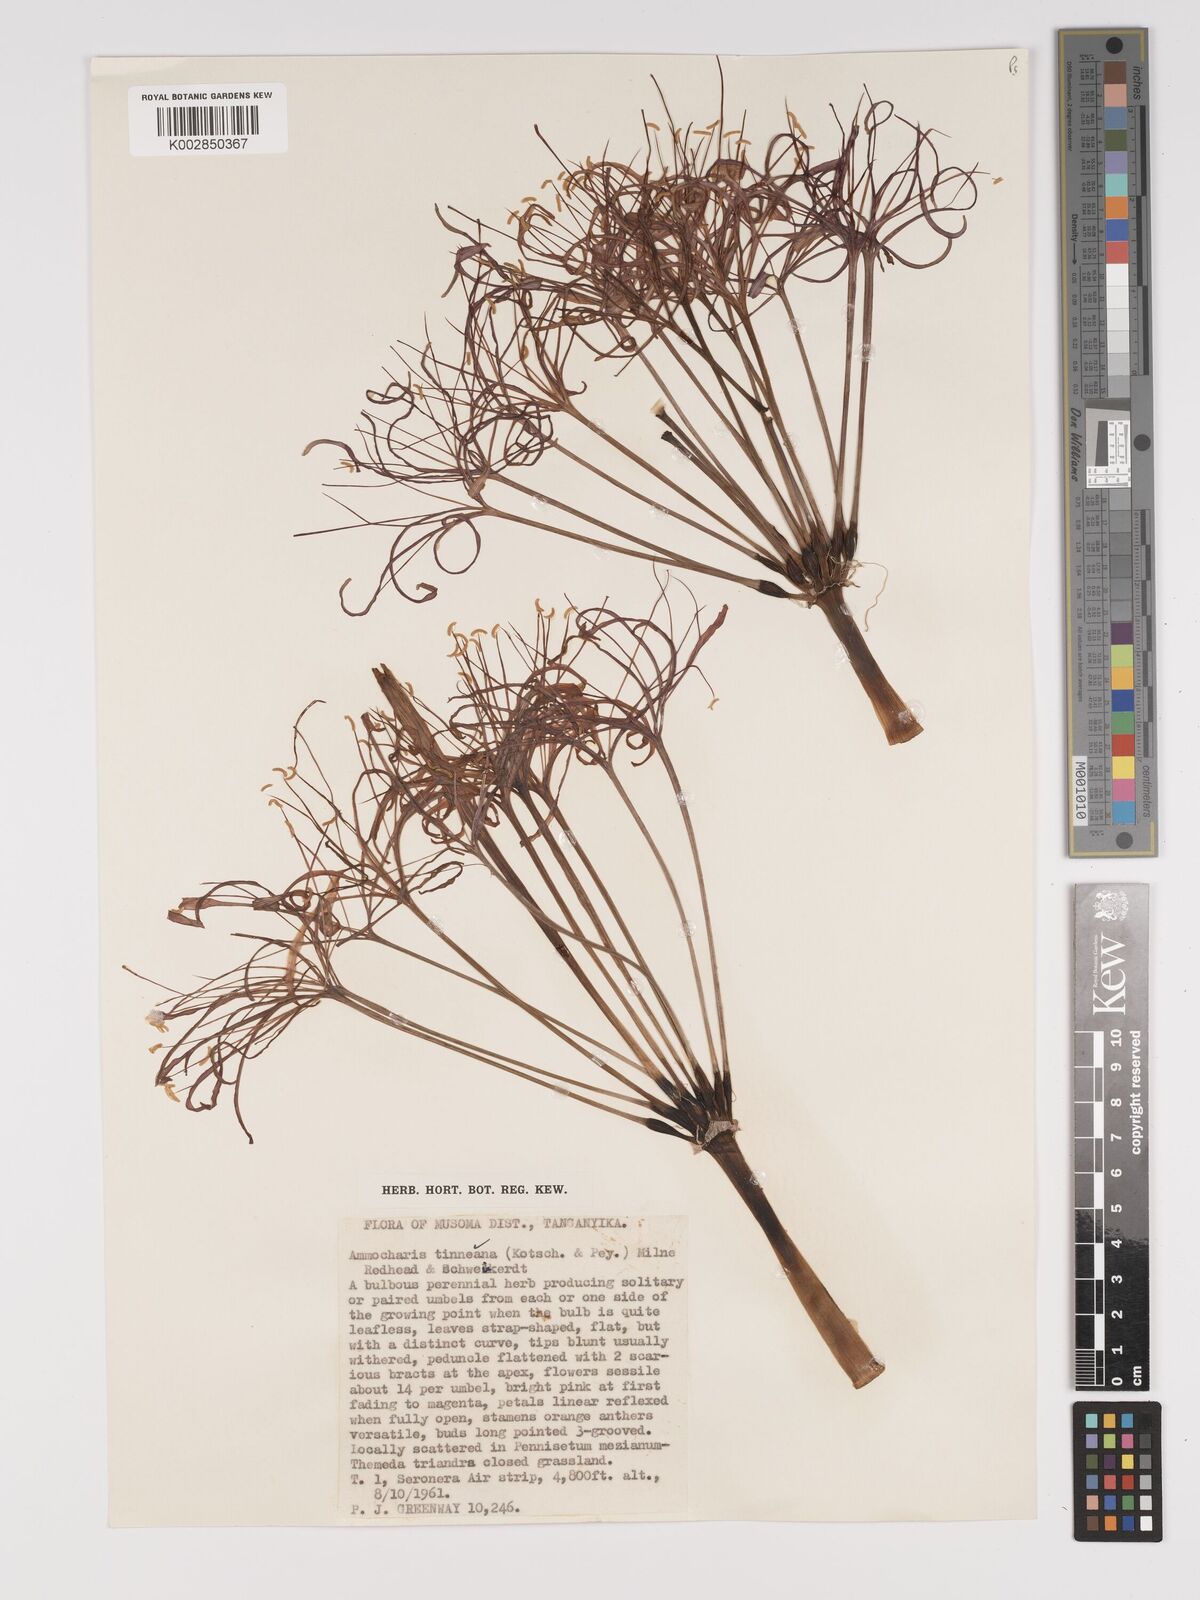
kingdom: Plantae
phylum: Tracheophyta
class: Liliopsida
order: Asparagales
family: Amaryllidaceae
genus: Ammocharis
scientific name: Ammocharis tinneana
